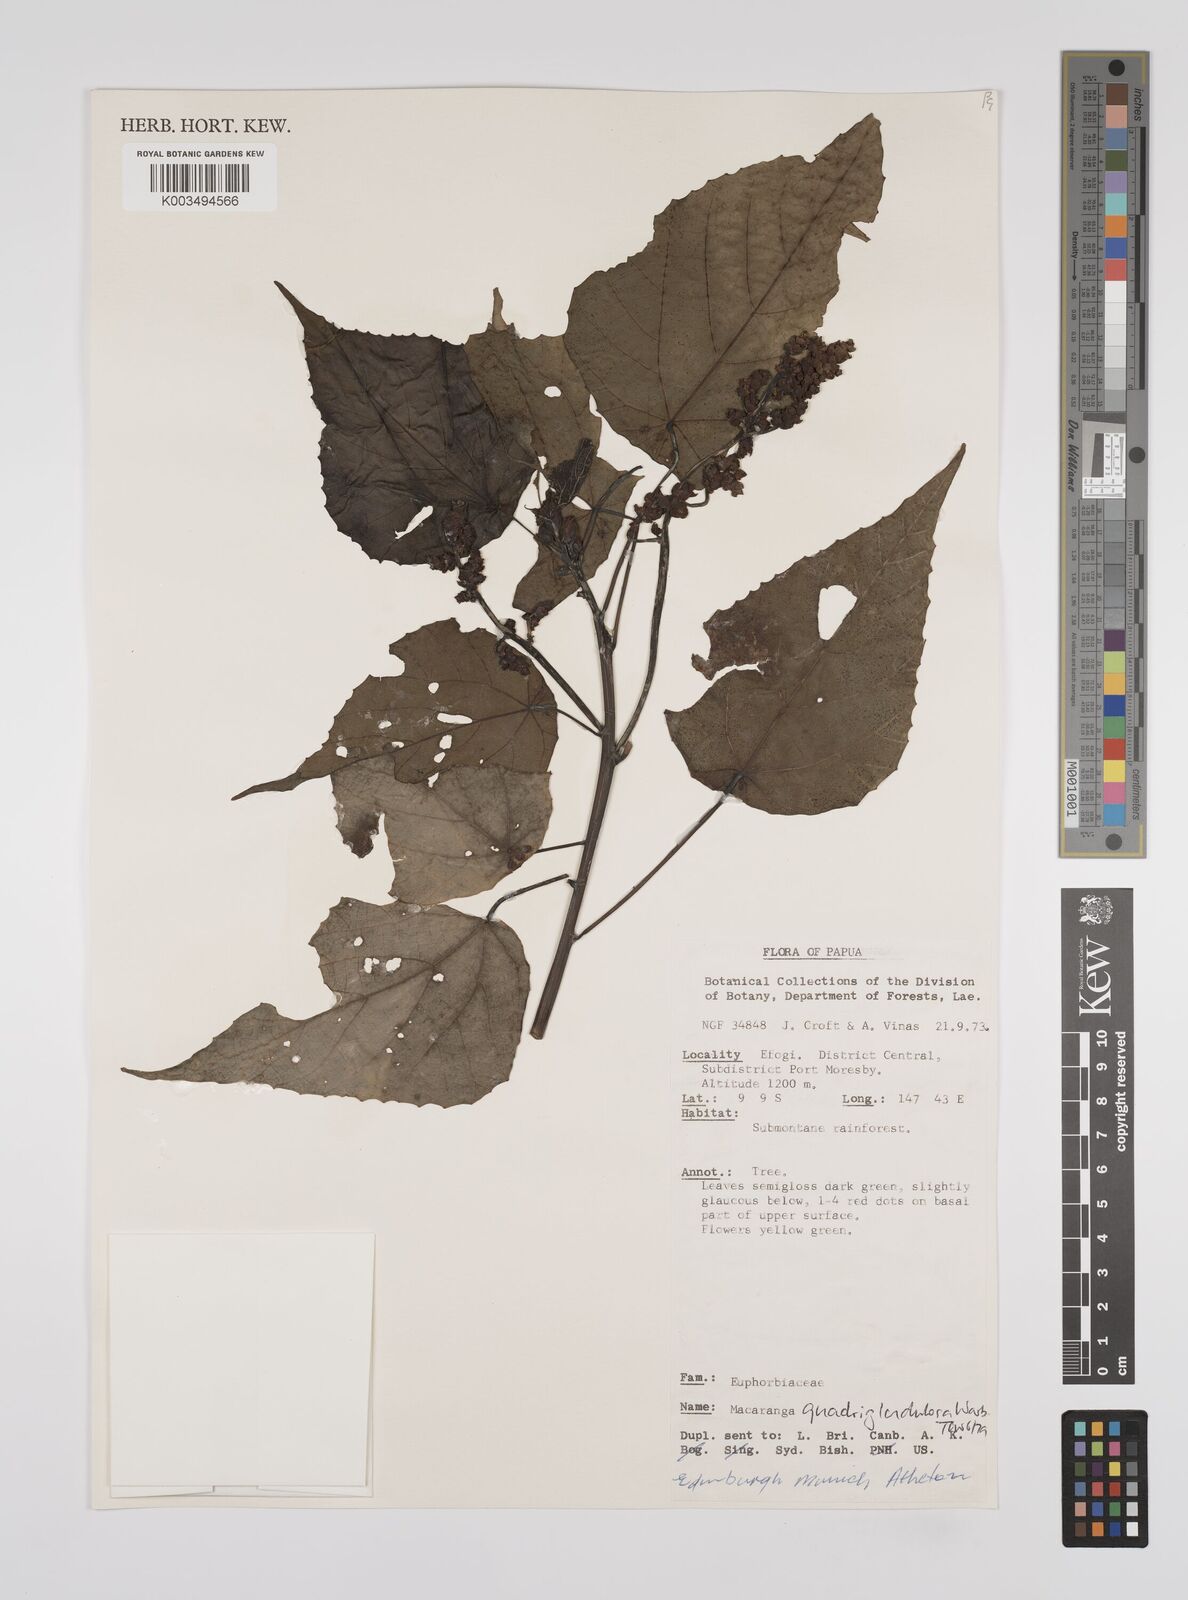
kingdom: Plantae
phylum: Tracheophyta
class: Magnoliopsida
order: Malpighiales
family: Euphorbiaceae
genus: Macaranga
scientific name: Macaranga quadriglandulosa
